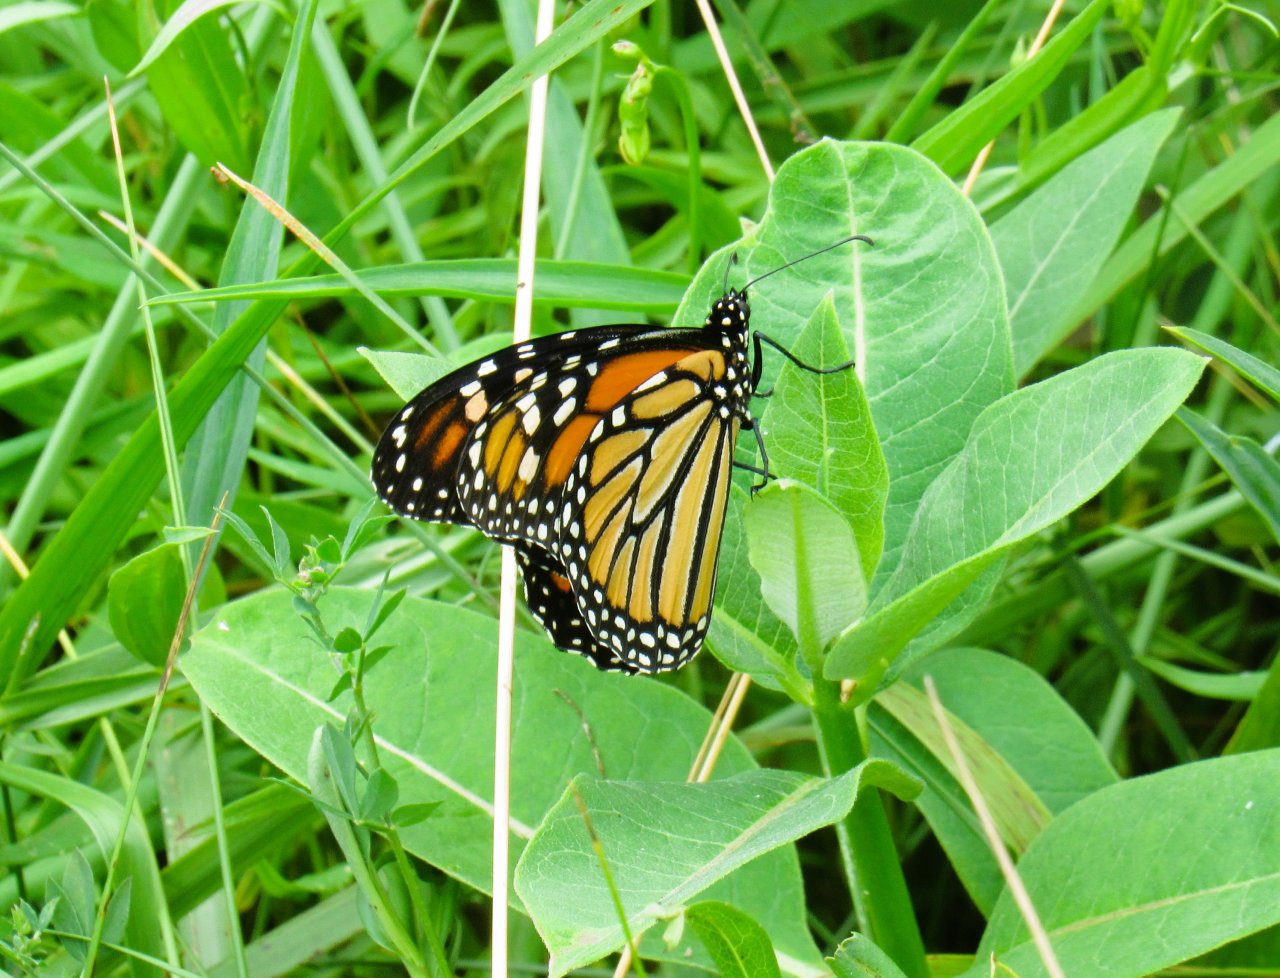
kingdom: Animalia
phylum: Arthropoda
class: Insecta
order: Lepidoptera
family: Nymphalidae
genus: Danaus
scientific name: Danaus plexippus
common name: Monarch
